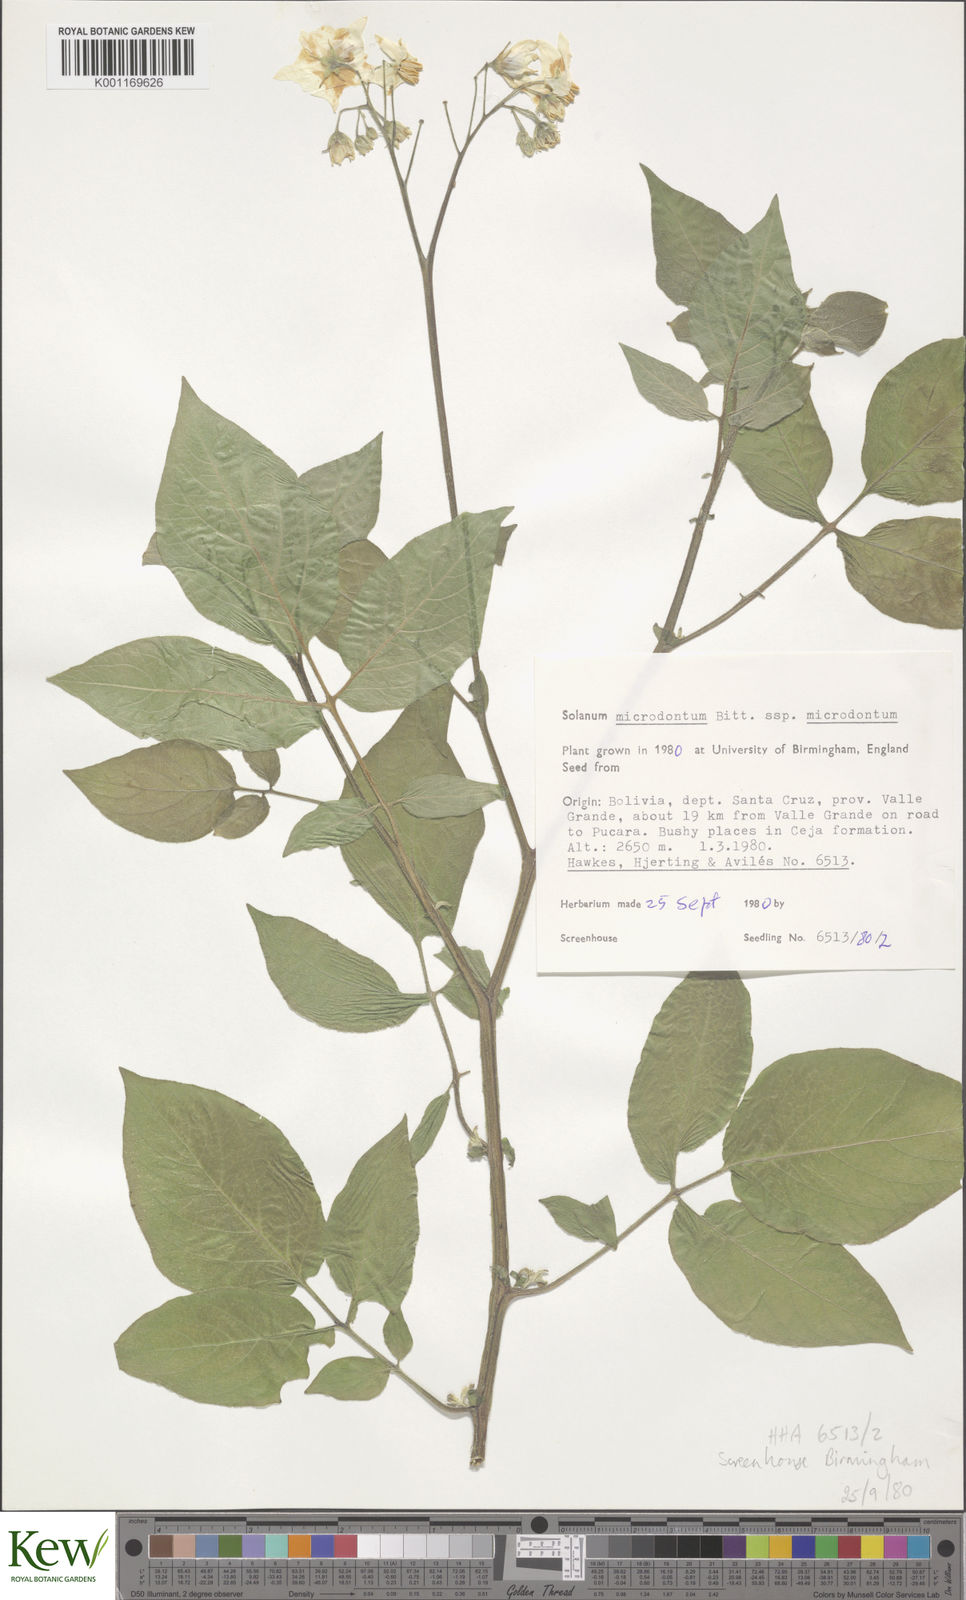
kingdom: Plantae
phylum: Tracheophyta
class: Magnoliopsida
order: Solanales
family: Solanaceae
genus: Solanum
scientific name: Solanum microdontum
